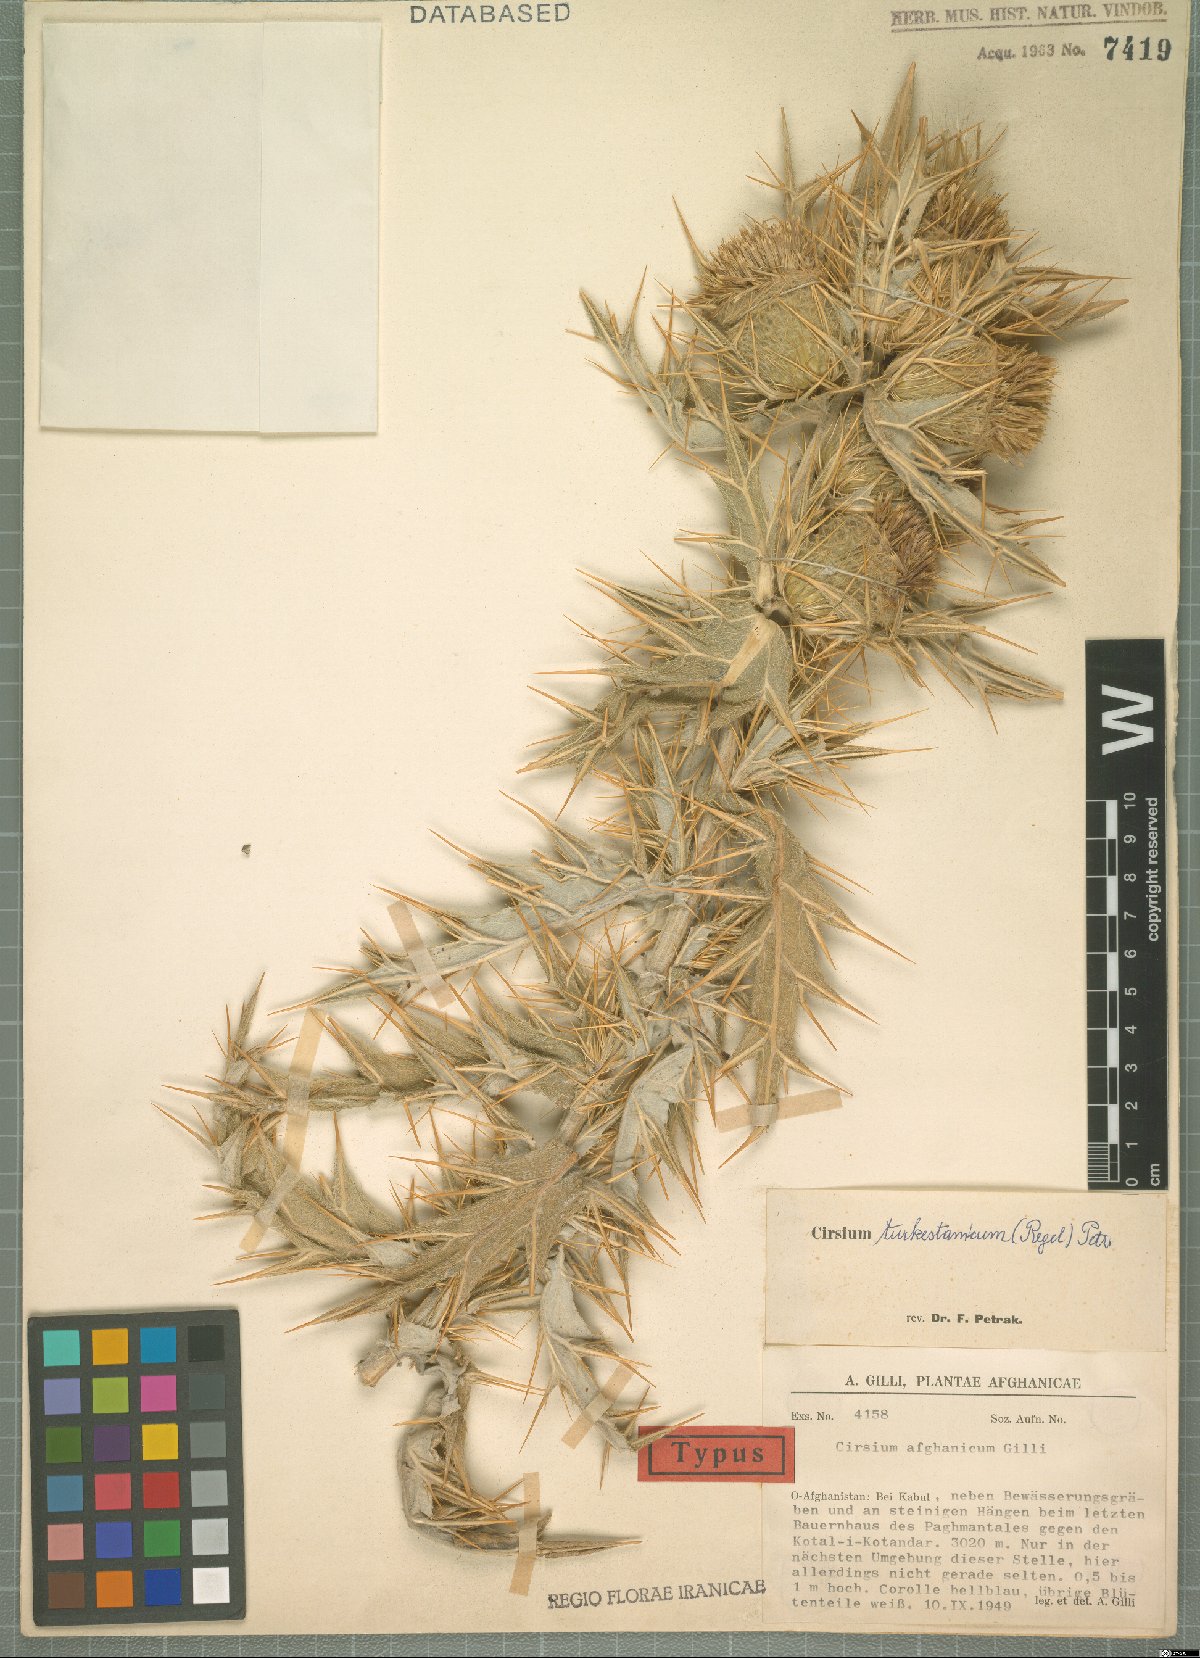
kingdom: Plantae
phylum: Tracheophyta
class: Magnoliopsida
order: Asterales
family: Asteraceae
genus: Lophiolepis
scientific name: Lophiolepis turkestanica
